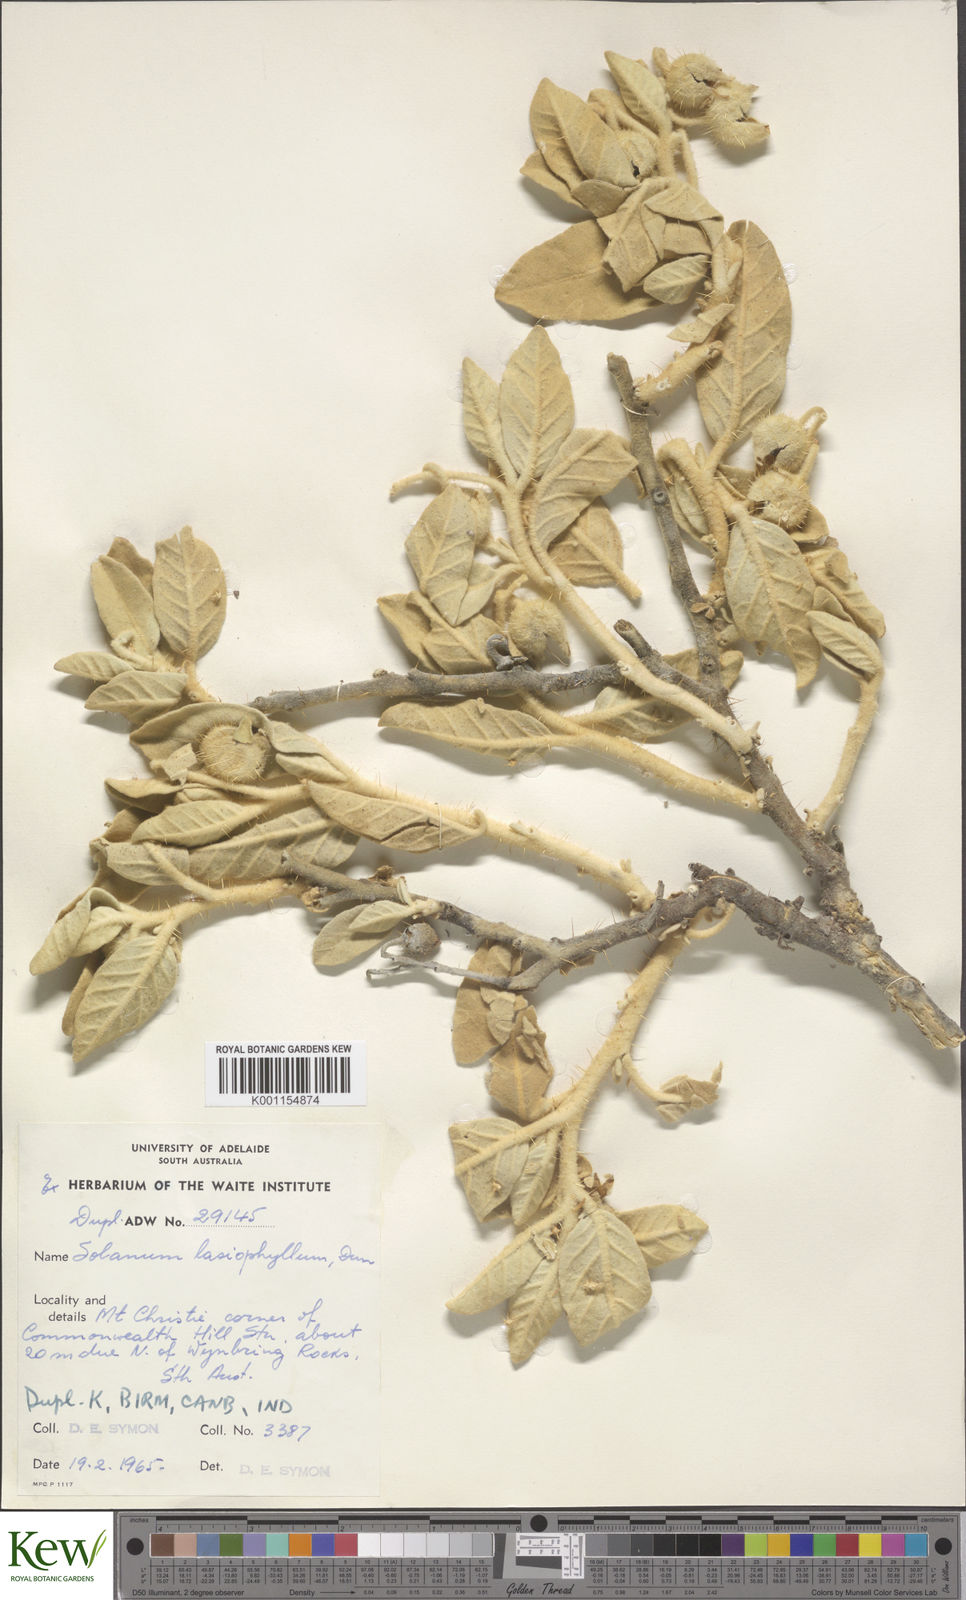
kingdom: Plantae
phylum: Tracheophyta
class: Magnoliopsida
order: Solanales
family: Solanaceae
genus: Solanum
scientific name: Solanum lasiophyllum
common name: Flannelbush
